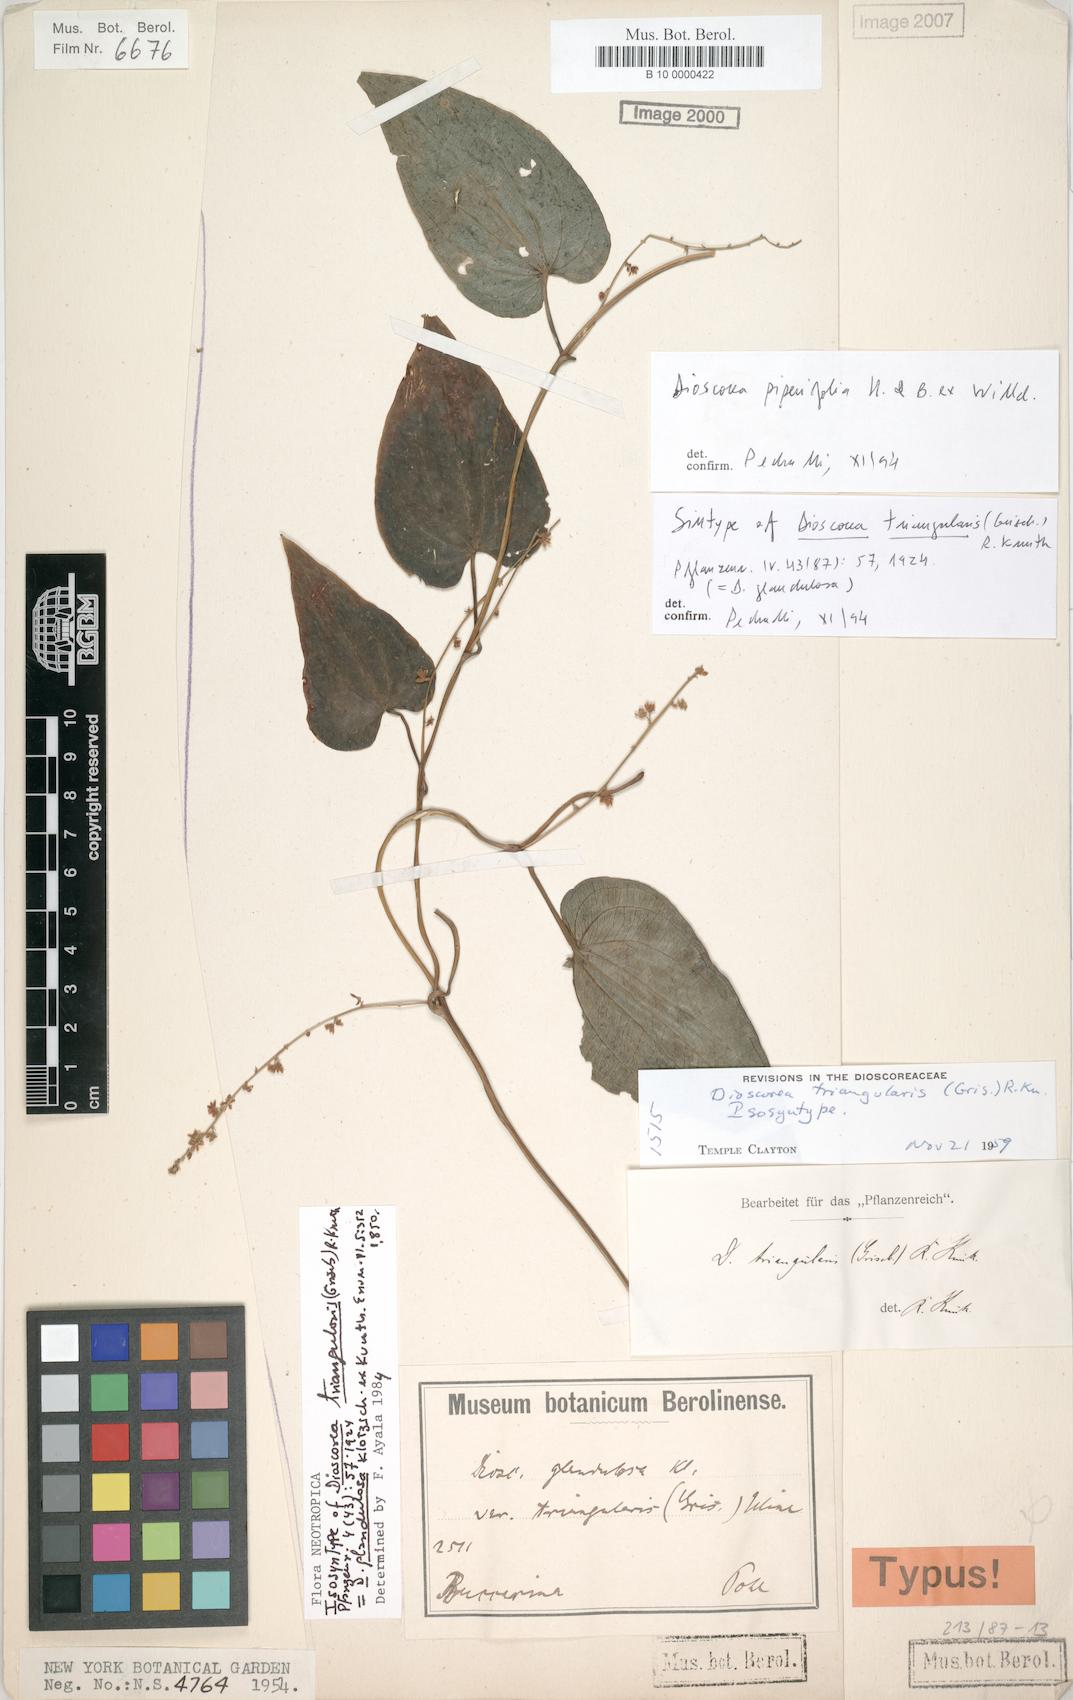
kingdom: Plantae
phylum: Tracheophyta
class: Liliopsida
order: Dioscoreales
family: Dioscoreaceae
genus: Dioscorea
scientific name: Dioscorea piperifolia
